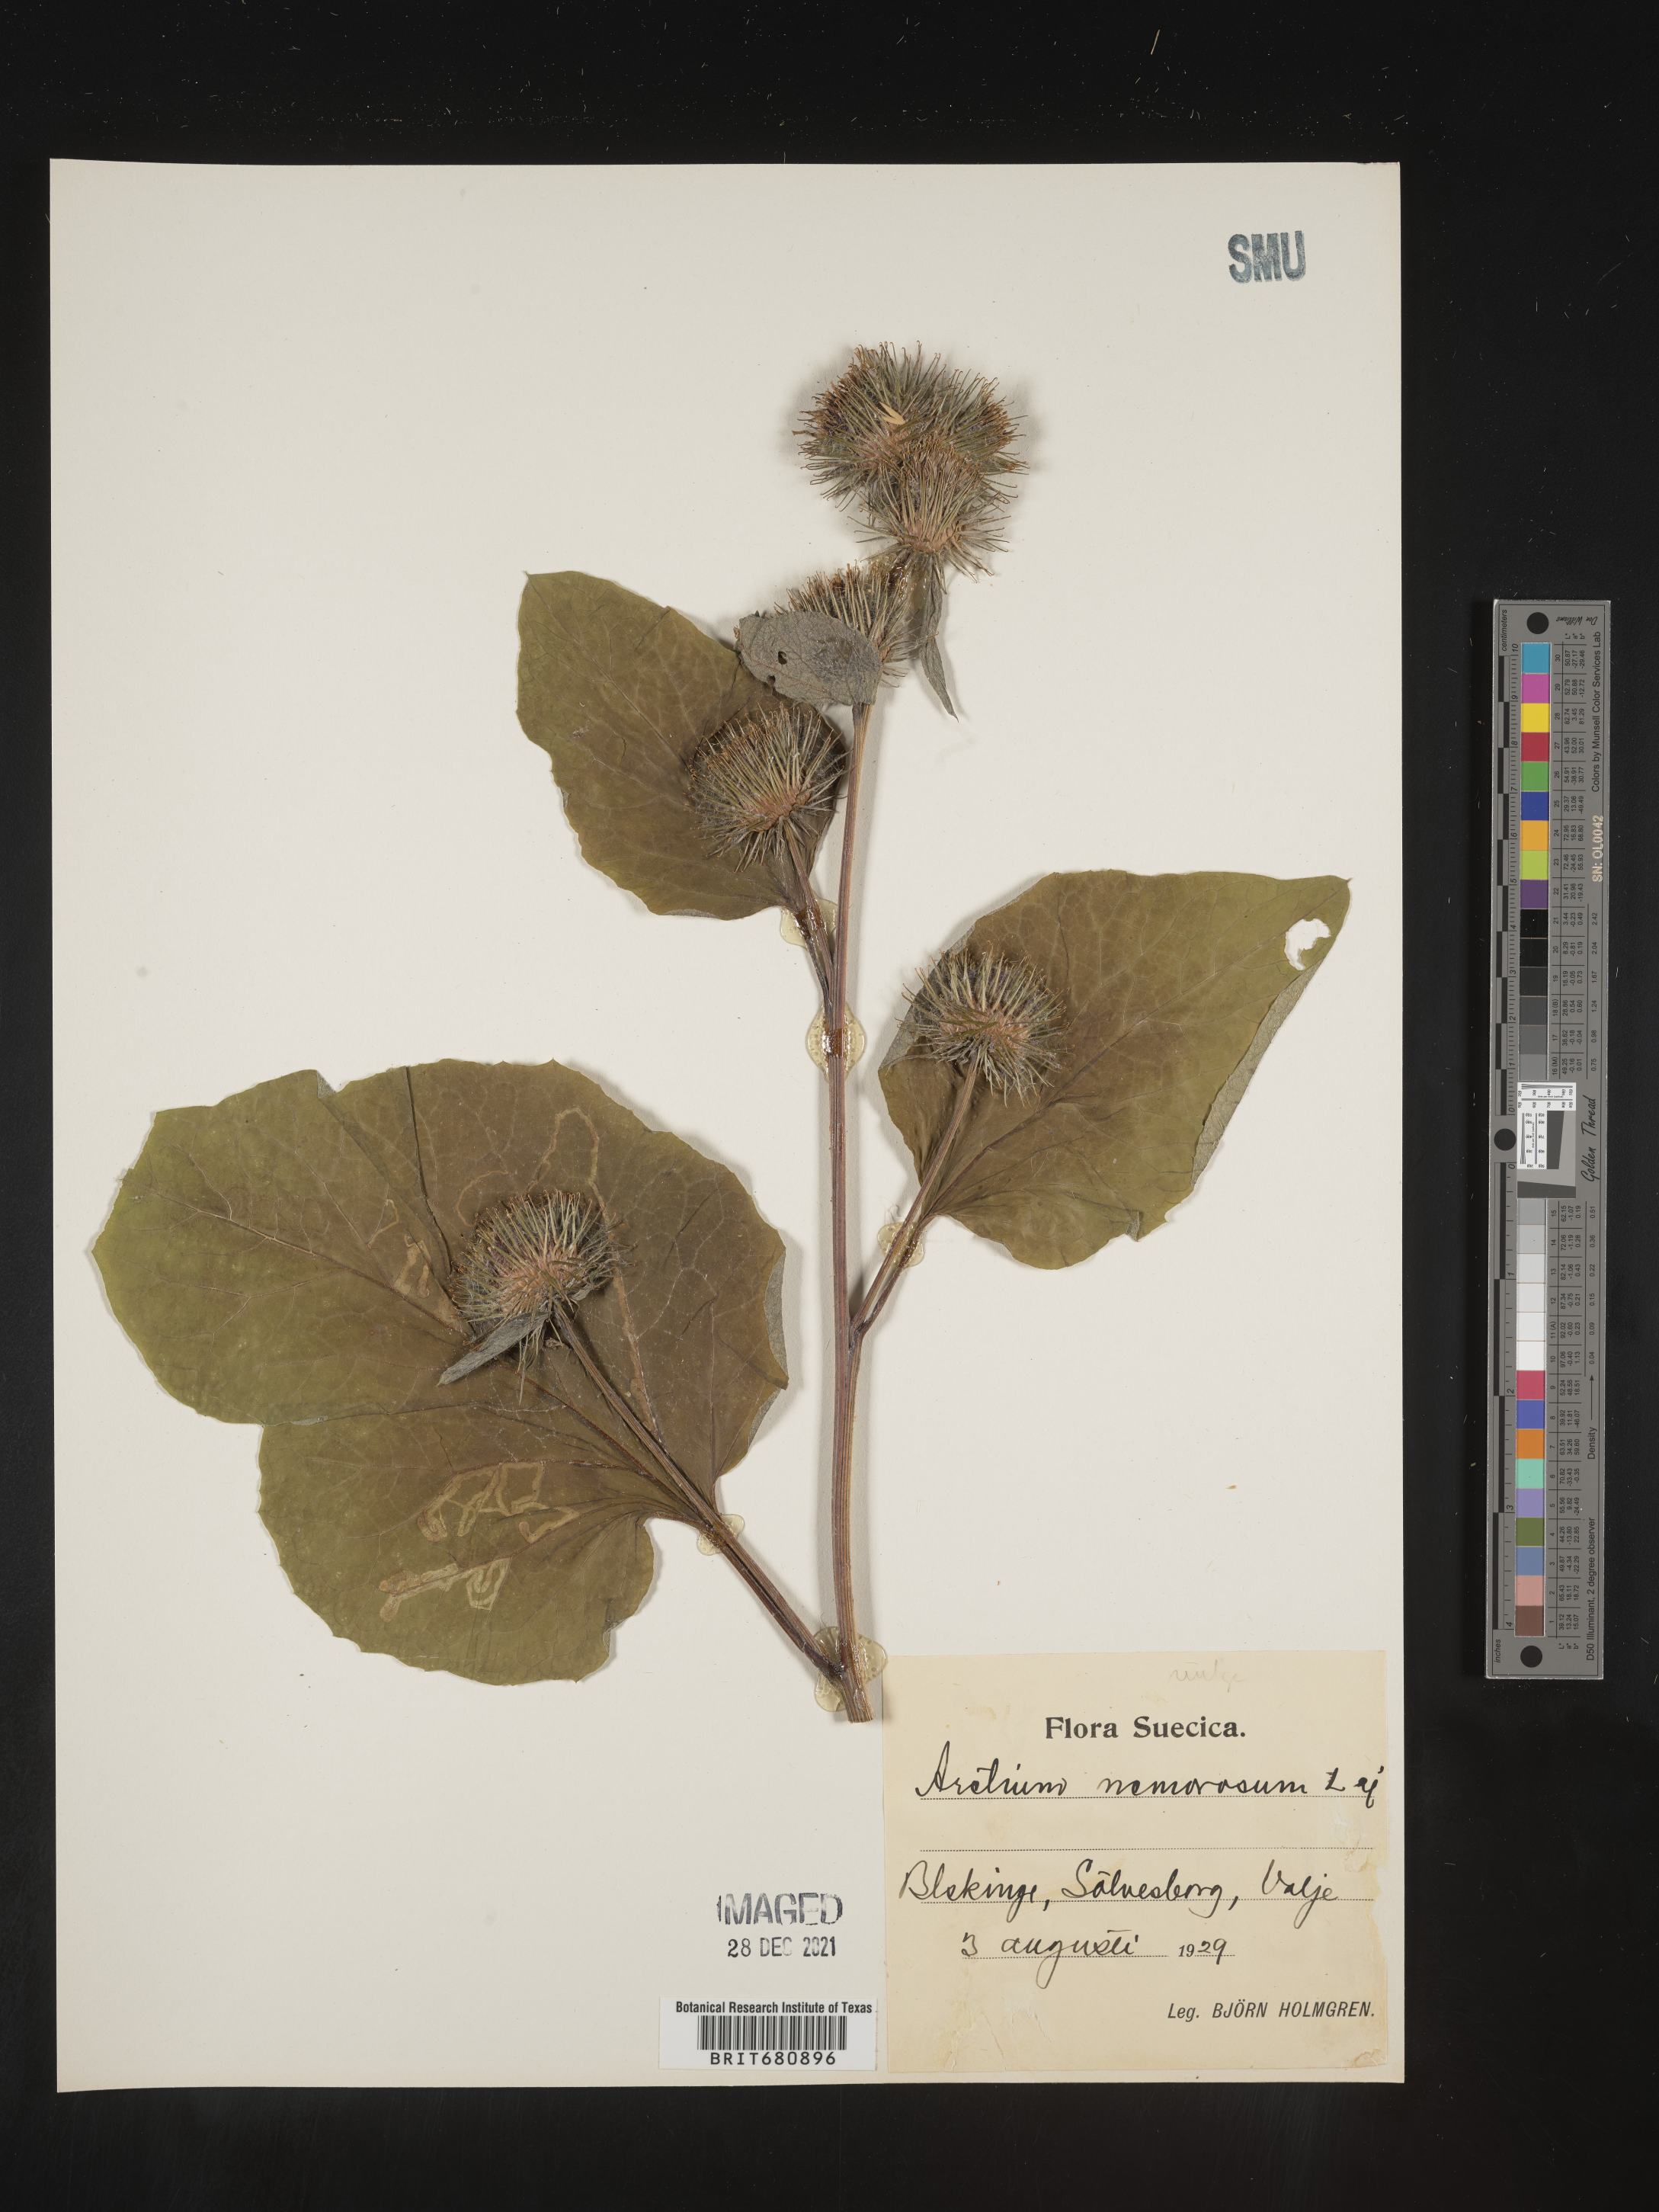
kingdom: Plantae
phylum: Tracheophyta
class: Magnoliopsida
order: Asterales
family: Asteraceae
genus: Arctium
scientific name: Arctium
